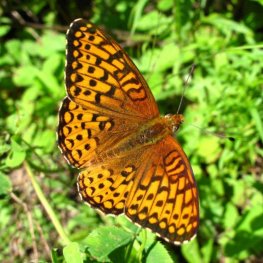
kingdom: Animalia
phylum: Arthropoda
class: Insecta
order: Lepidoptera
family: Nymphalidae
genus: Speyeria
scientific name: Speyeria atlantis
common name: Atlantis Fritillary
